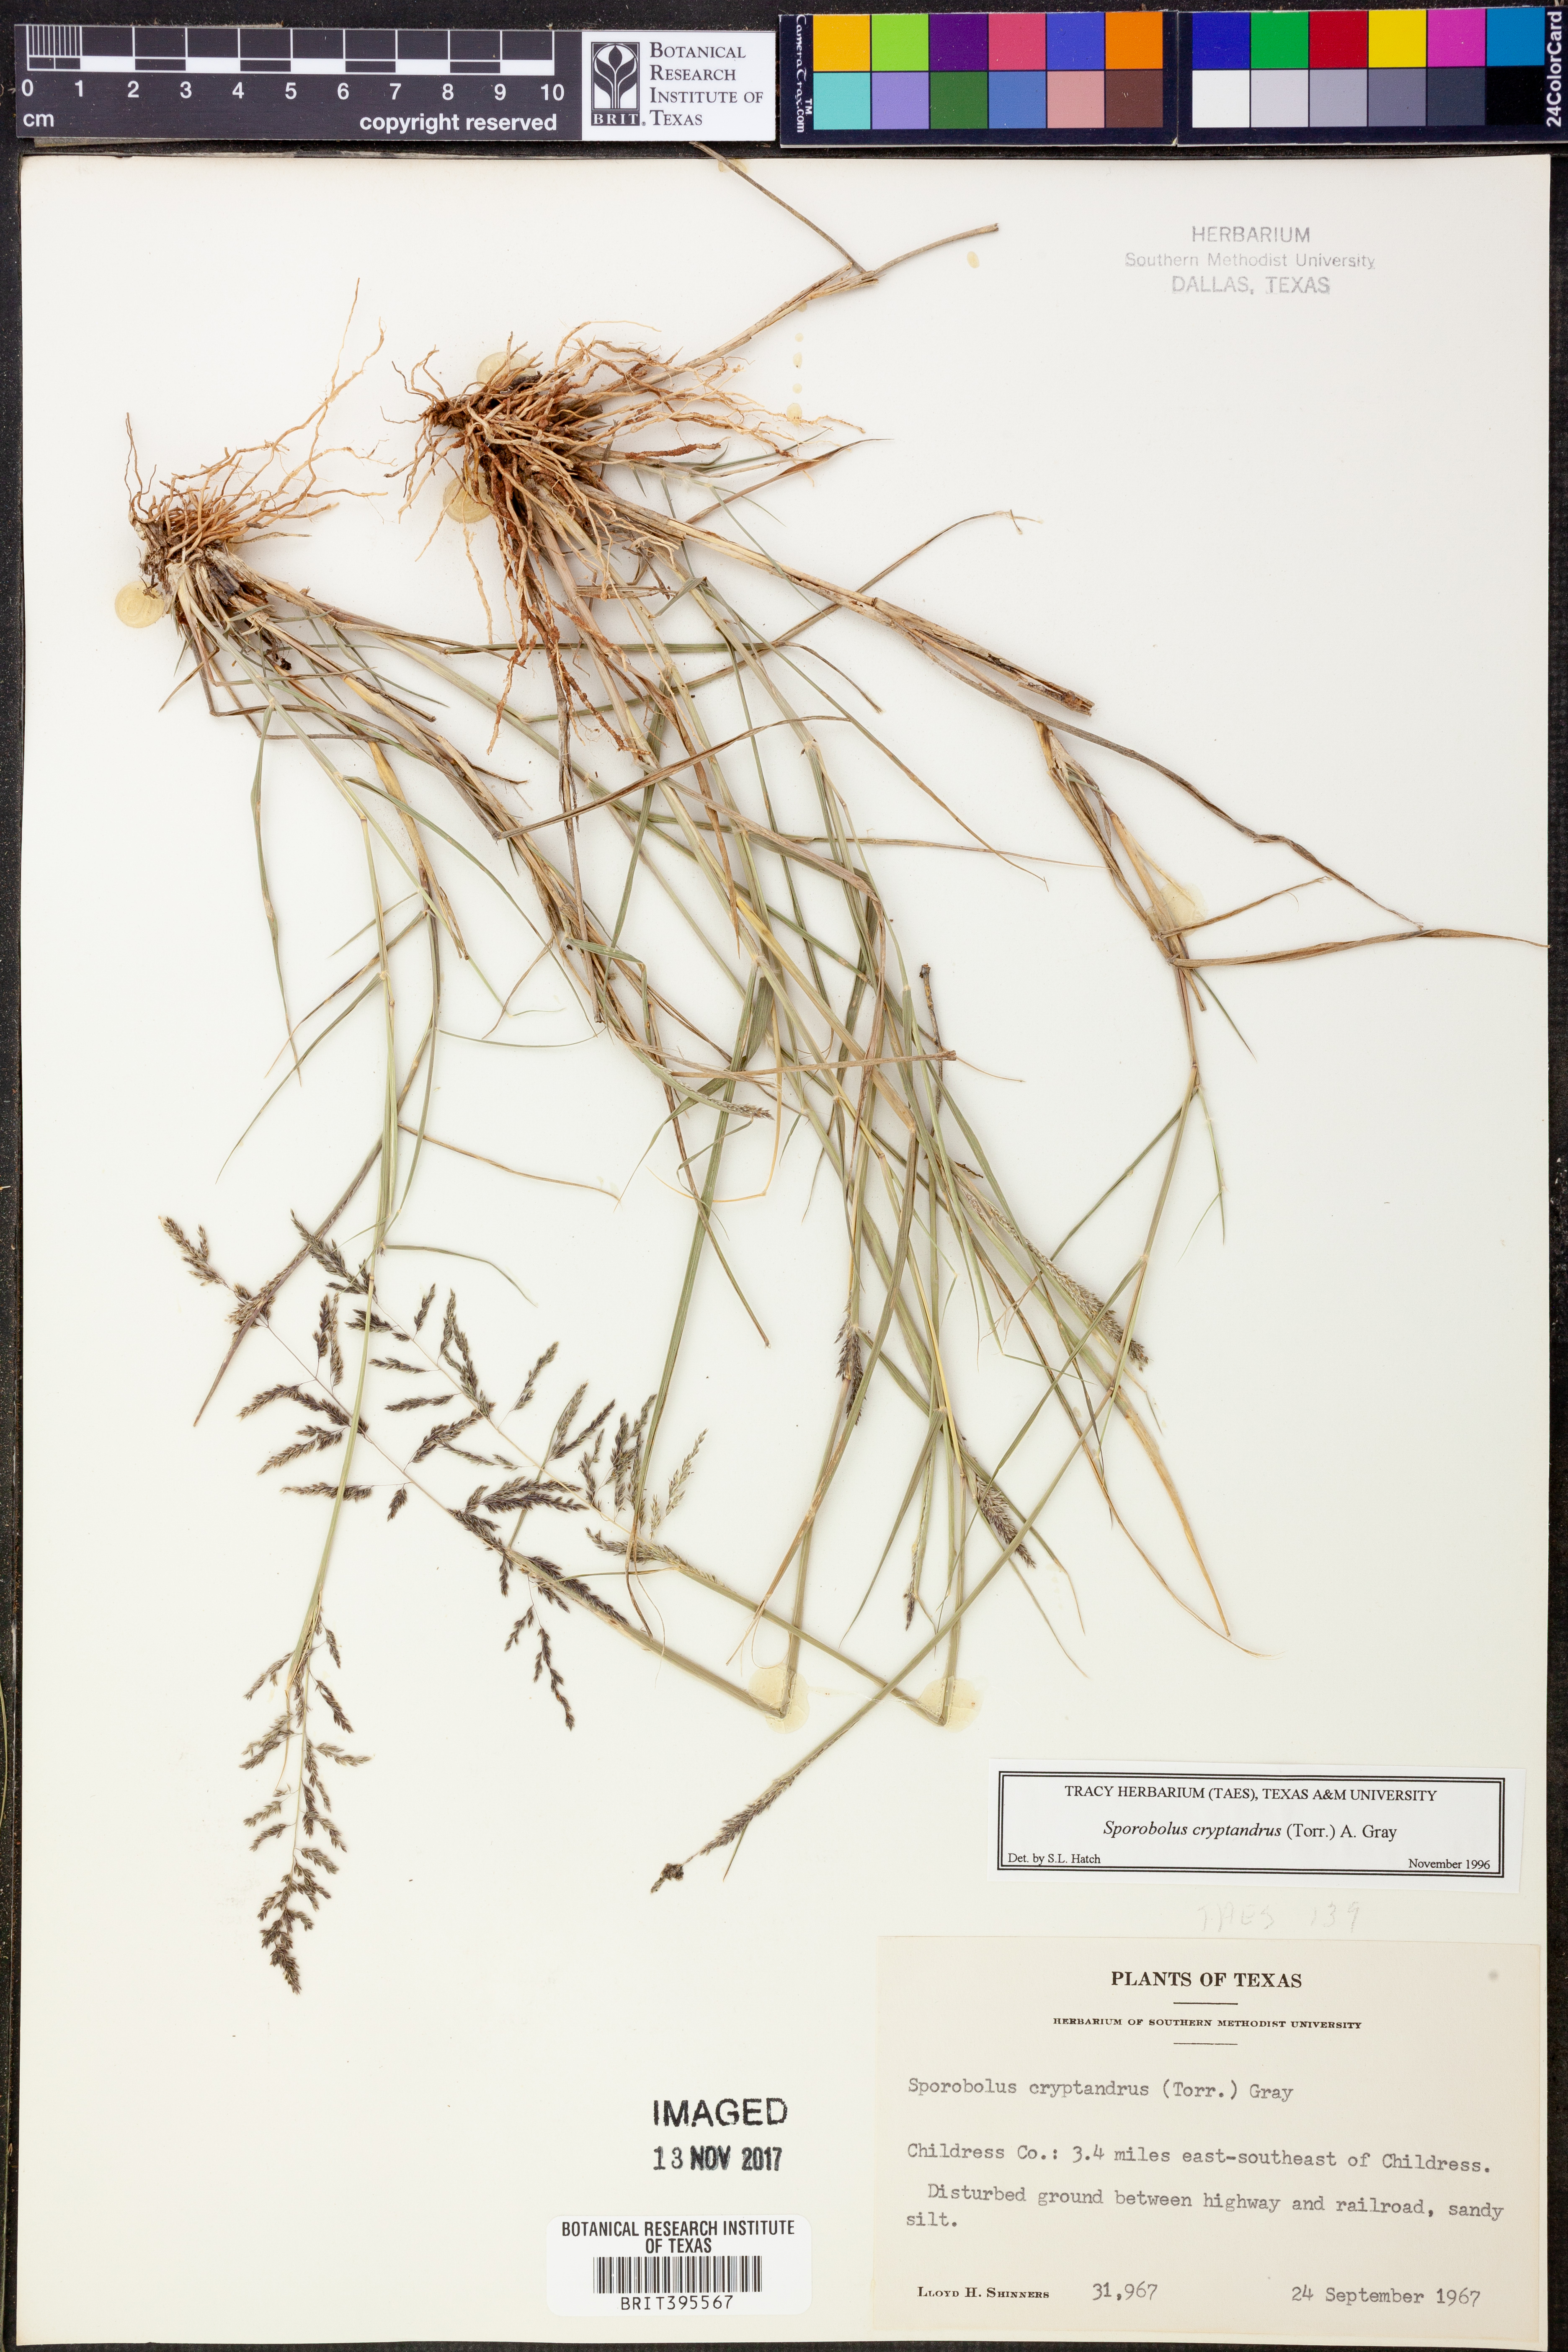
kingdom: Plantae
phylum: Tracheophyta
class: Liliopsida
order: Poales
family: Poaceae
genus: Sporobolus
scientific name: Sporobolus cryptandrus
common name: Sand dropseed
